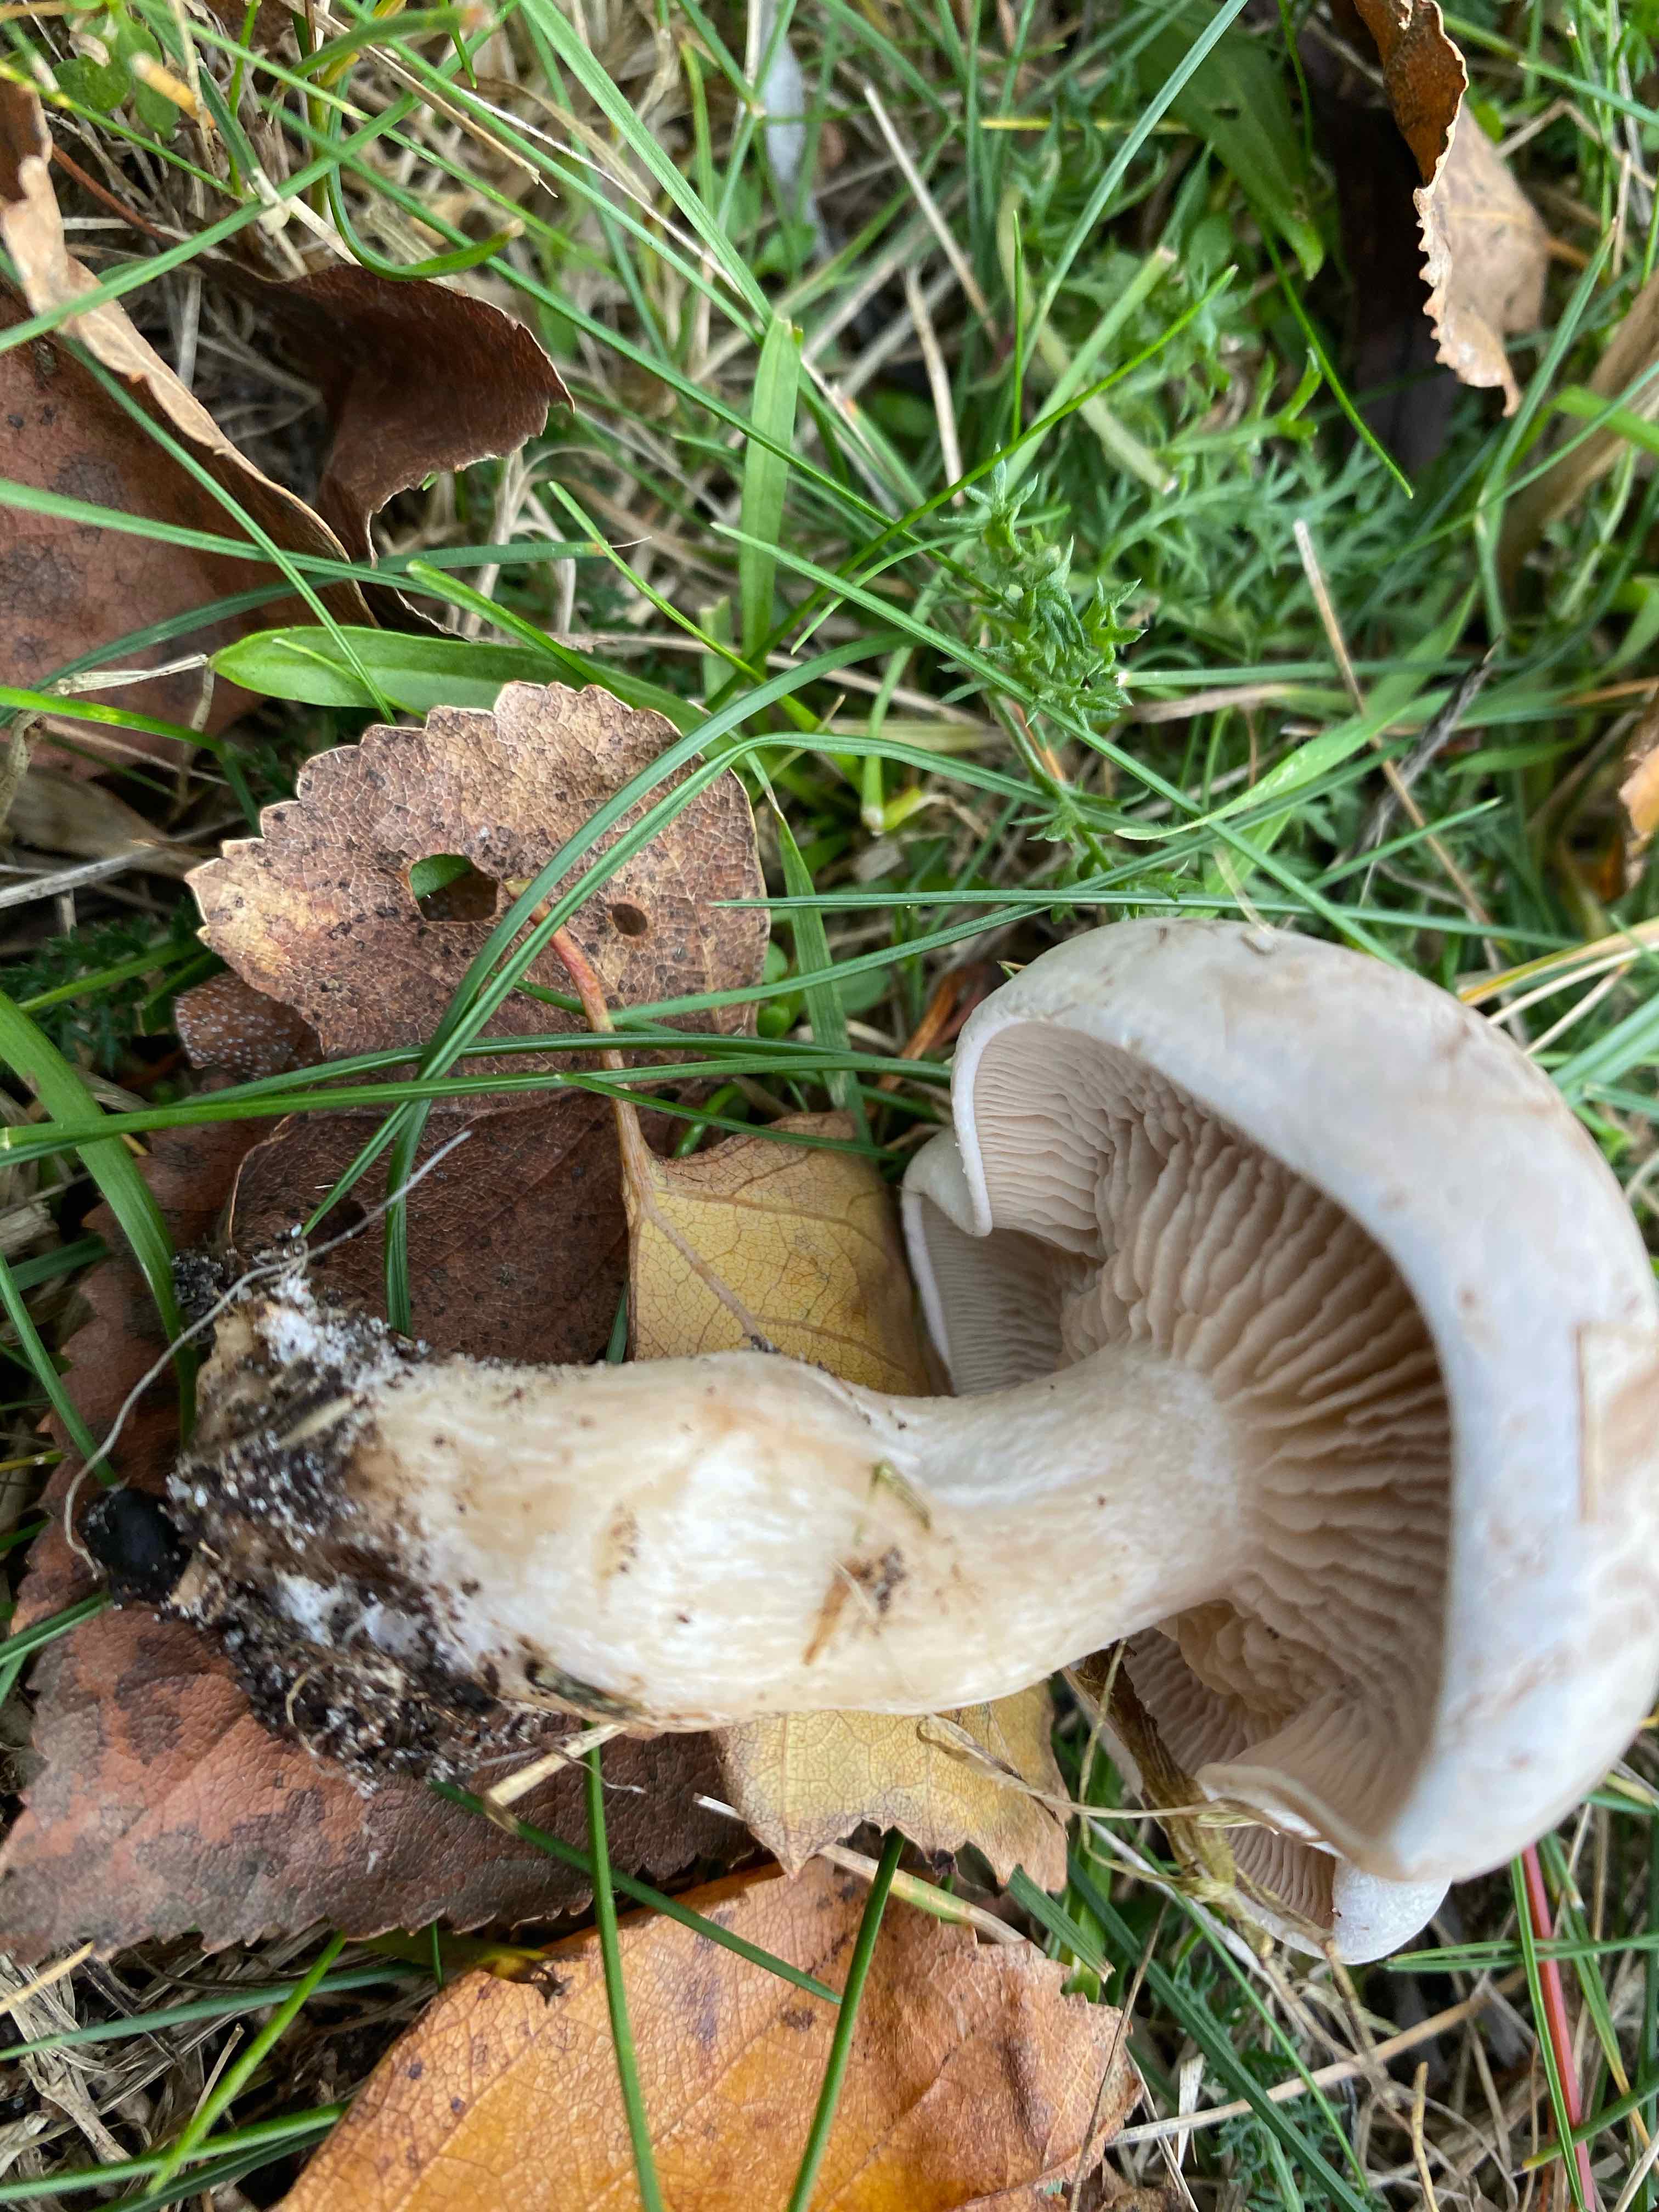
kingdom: Fungi
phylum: Basidiomycota
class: Agaricomycetes
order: Agaricales
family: Tricholomataceae
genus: Lepista
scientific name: Lepista
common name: hekseringshat
